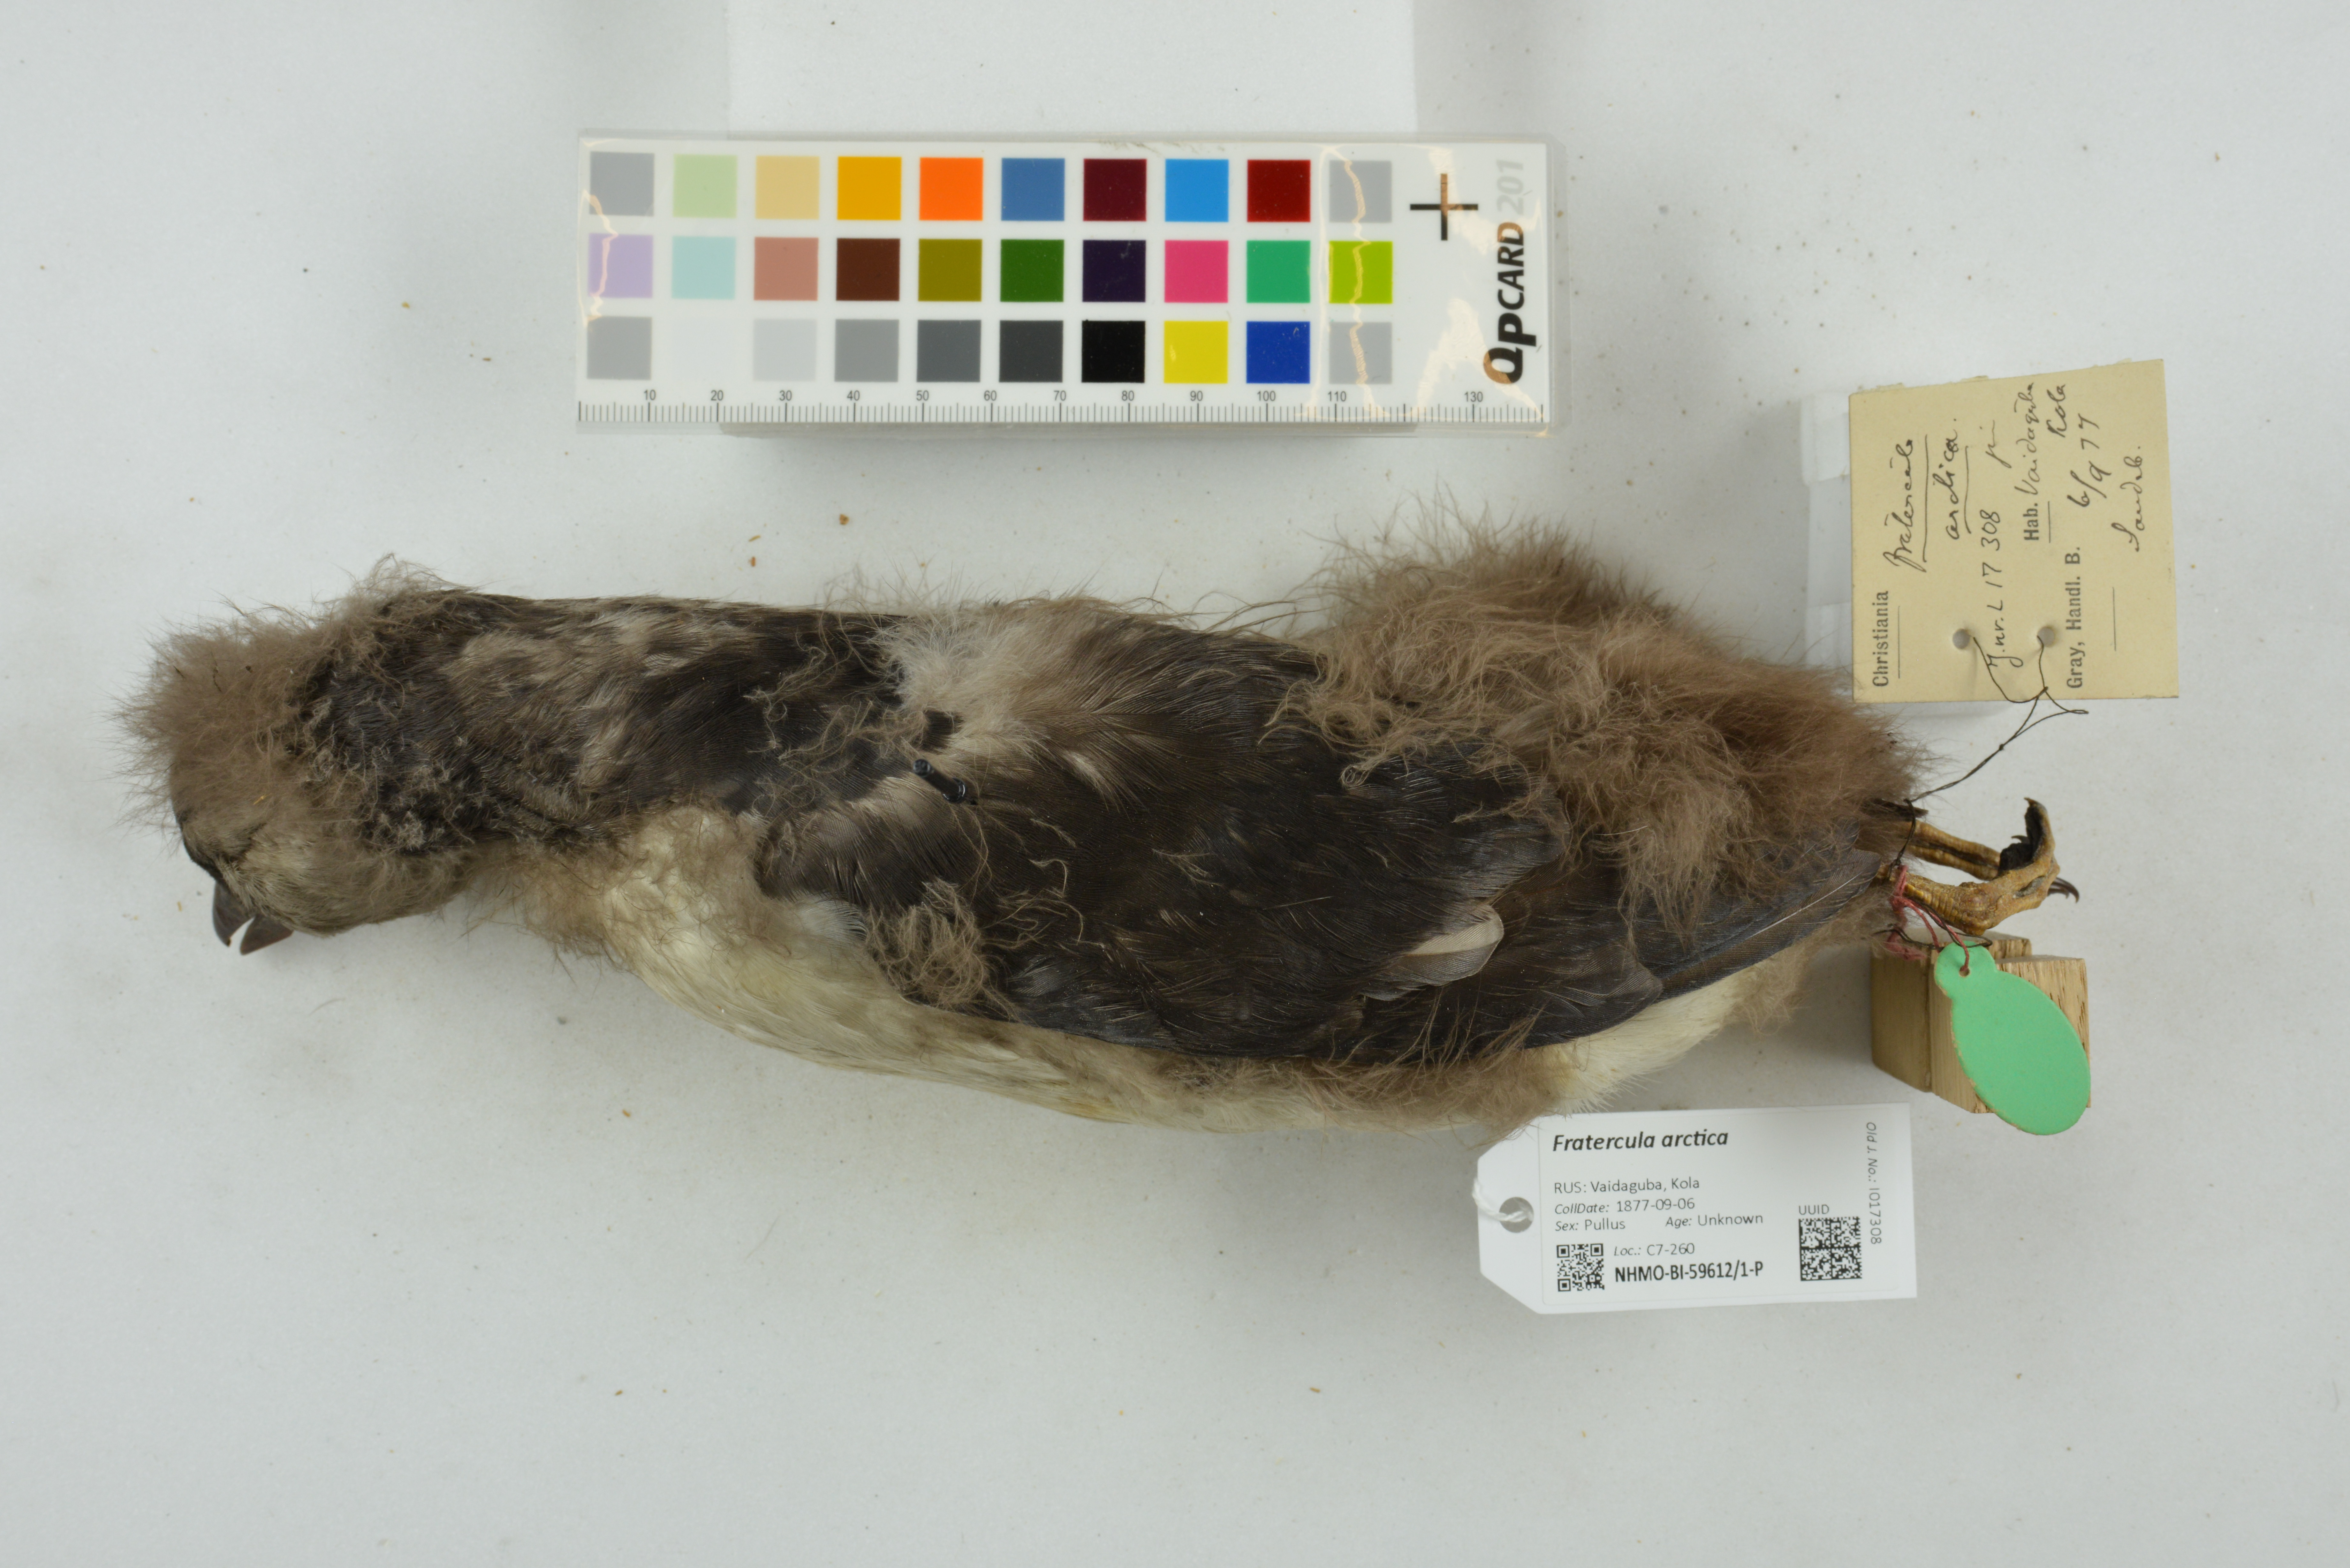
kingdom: Animalia
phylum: Chordata
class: Aves
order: Charadriiformes
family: Alcidae
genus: Fratercula
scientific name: Fratercula arctica
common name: Atlantic puffin
